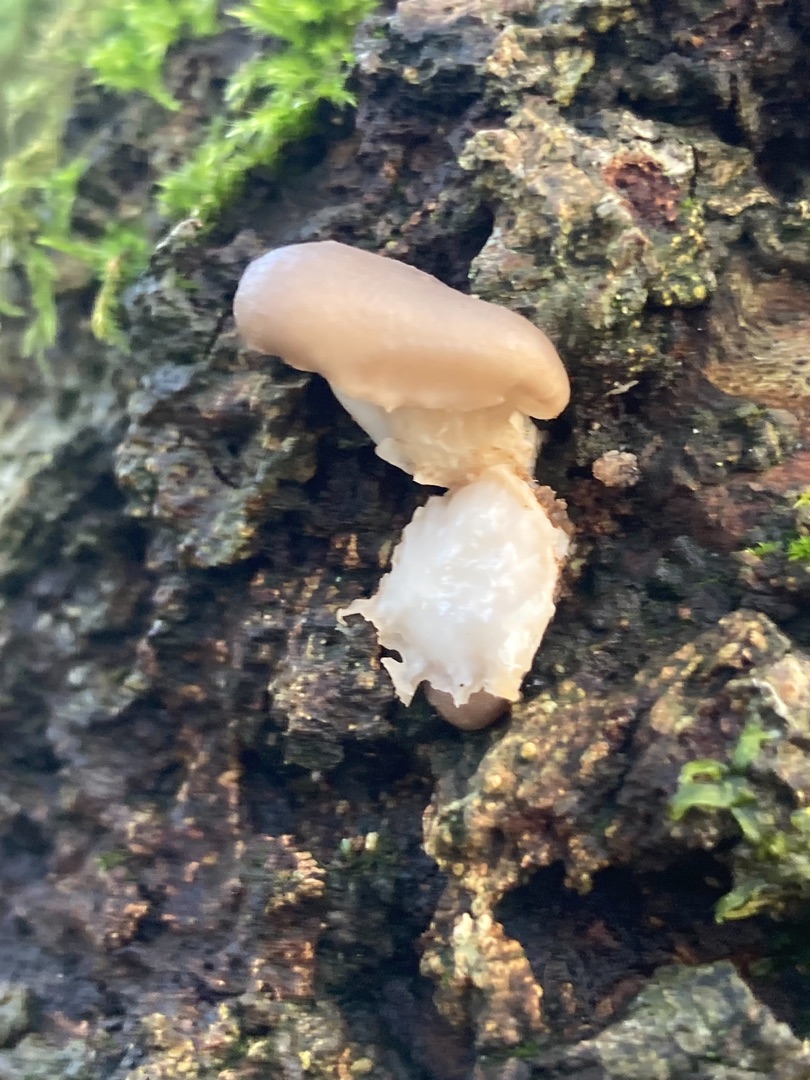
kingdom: Fungi
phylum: Basidiomycota
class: Agaricomycetes
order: Agaricales
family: Pleurotaceae
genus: Pleurotus
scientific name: Pleurotus ostreatus
